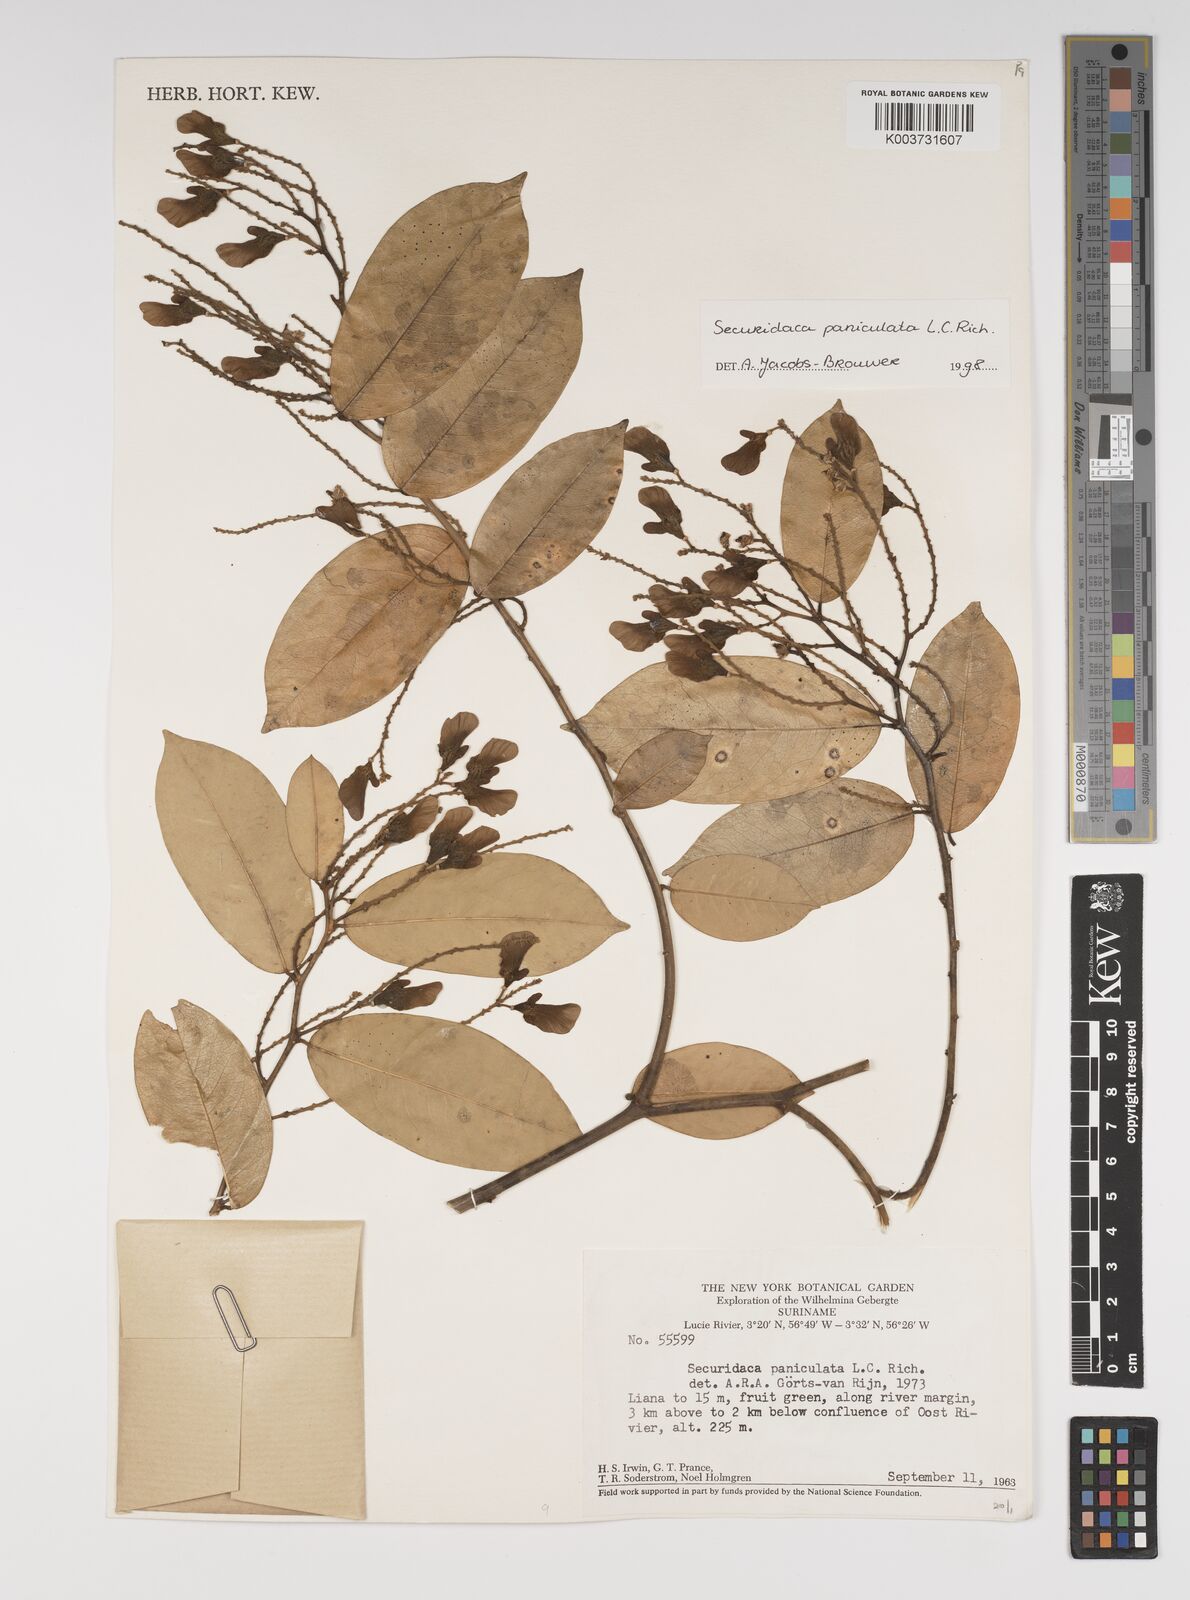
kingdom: Plantae
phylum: Tracheophyta
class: Magnoliopsida
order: Fabales
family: Polygalaceae
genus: Securidaca
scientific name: Securidaca paniculata
